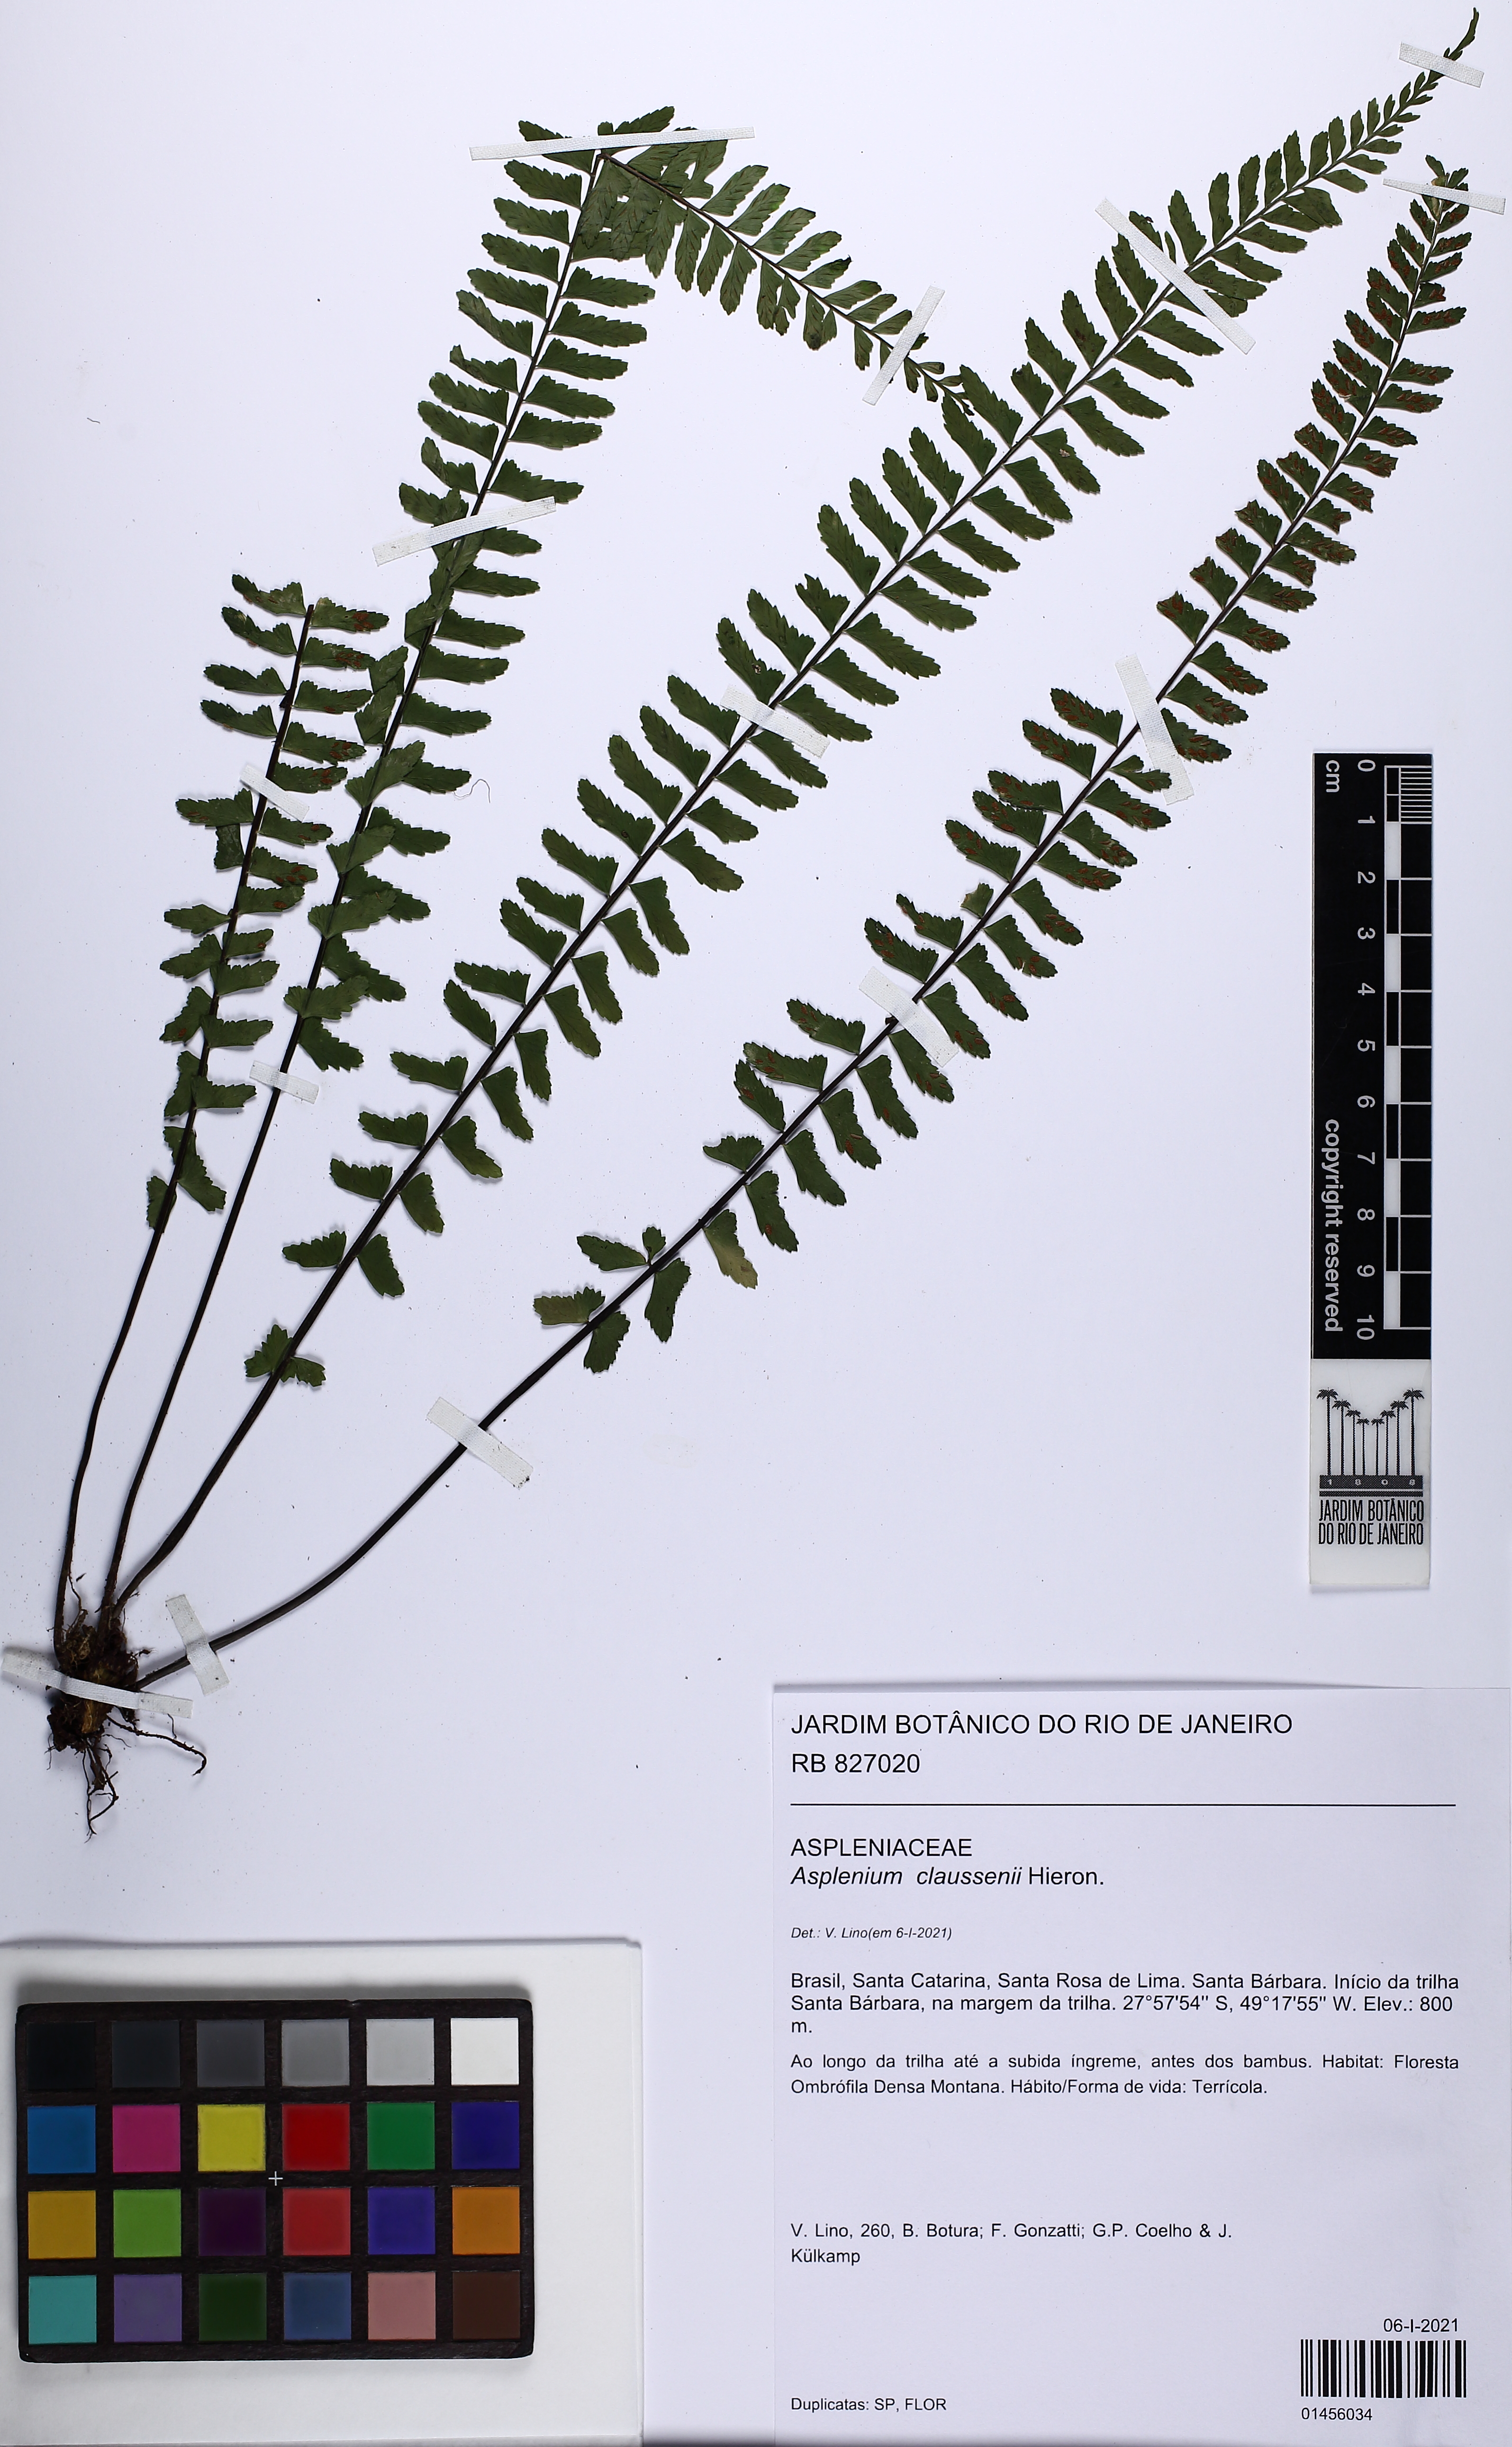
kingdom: Plantae
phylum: Tracheophyta
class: Polypodiopsida
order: Polypodiales
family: Aspleniaceae
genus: Asplenium
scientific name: Asplenium claussenii
